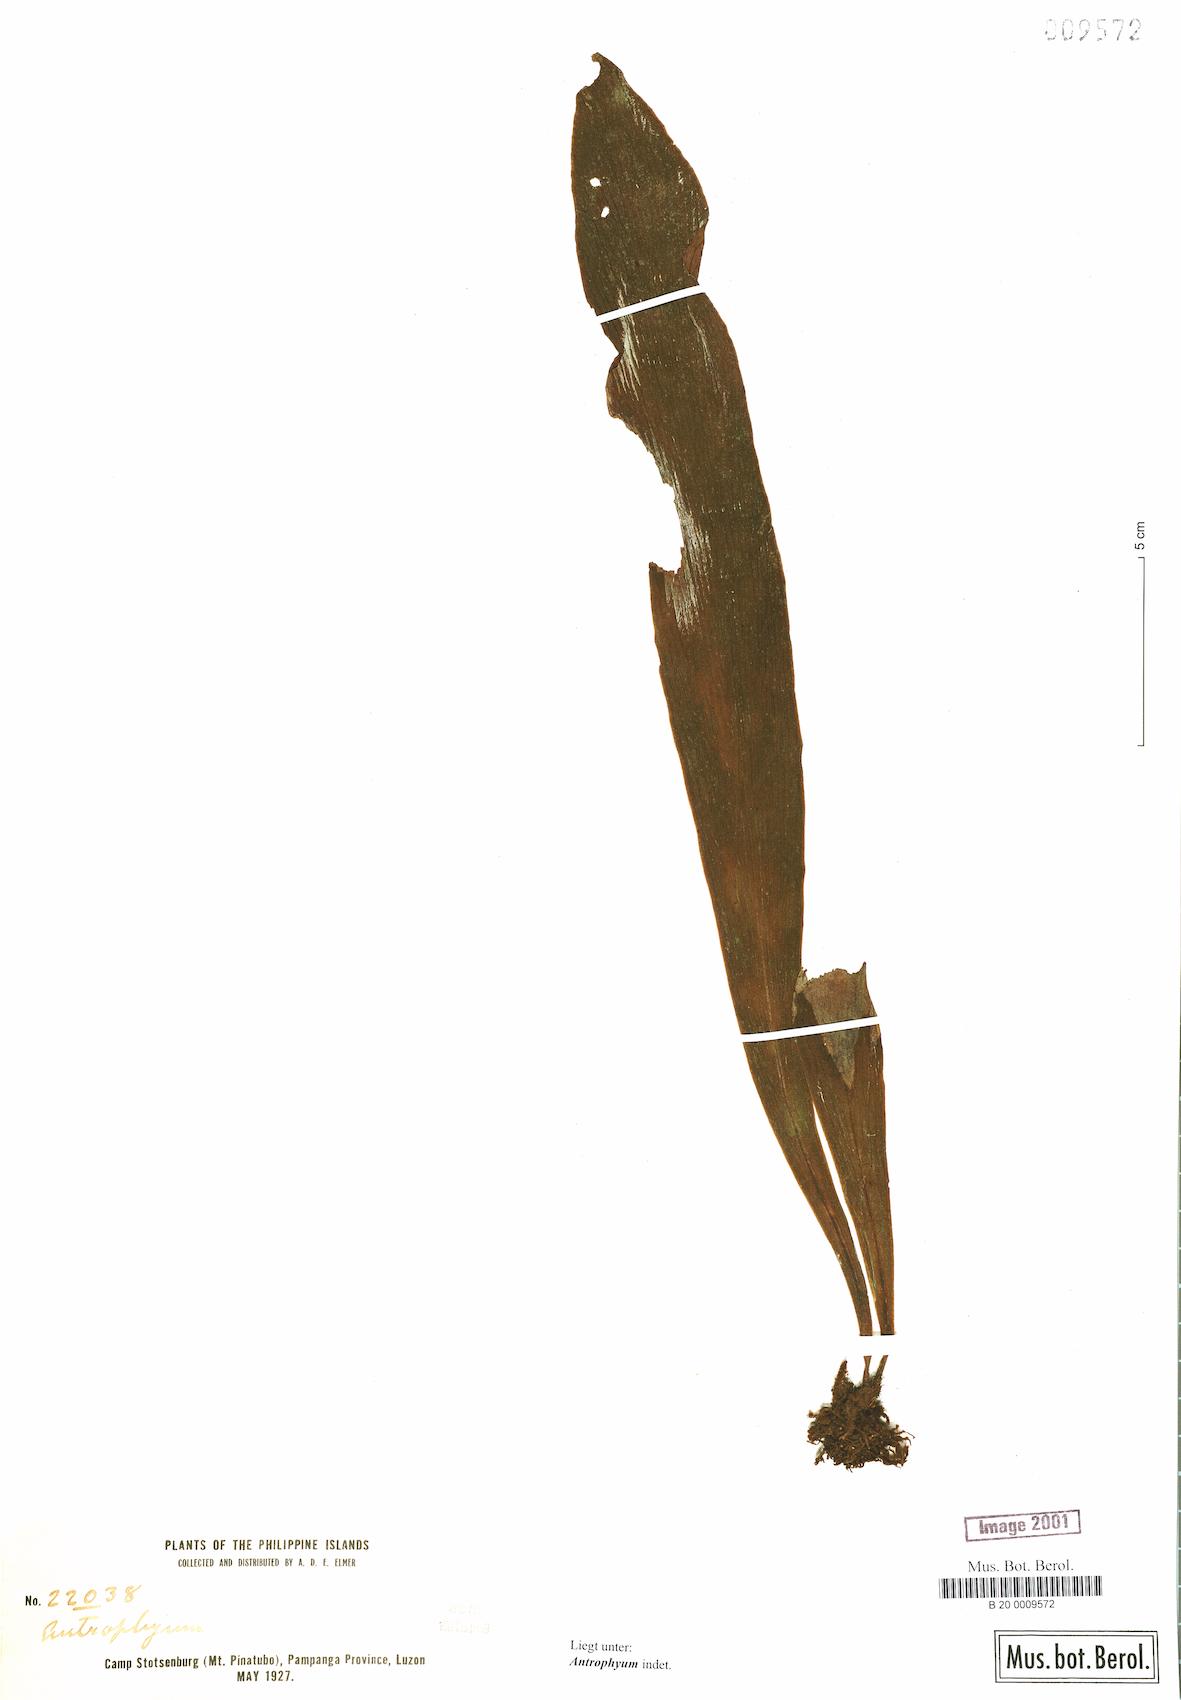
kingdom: Plantae
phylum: Tracheophyta
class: Polypodiopsida
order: Polypodiales
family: Pteridaceae
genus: Antrophyum
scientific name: Antrophyum
